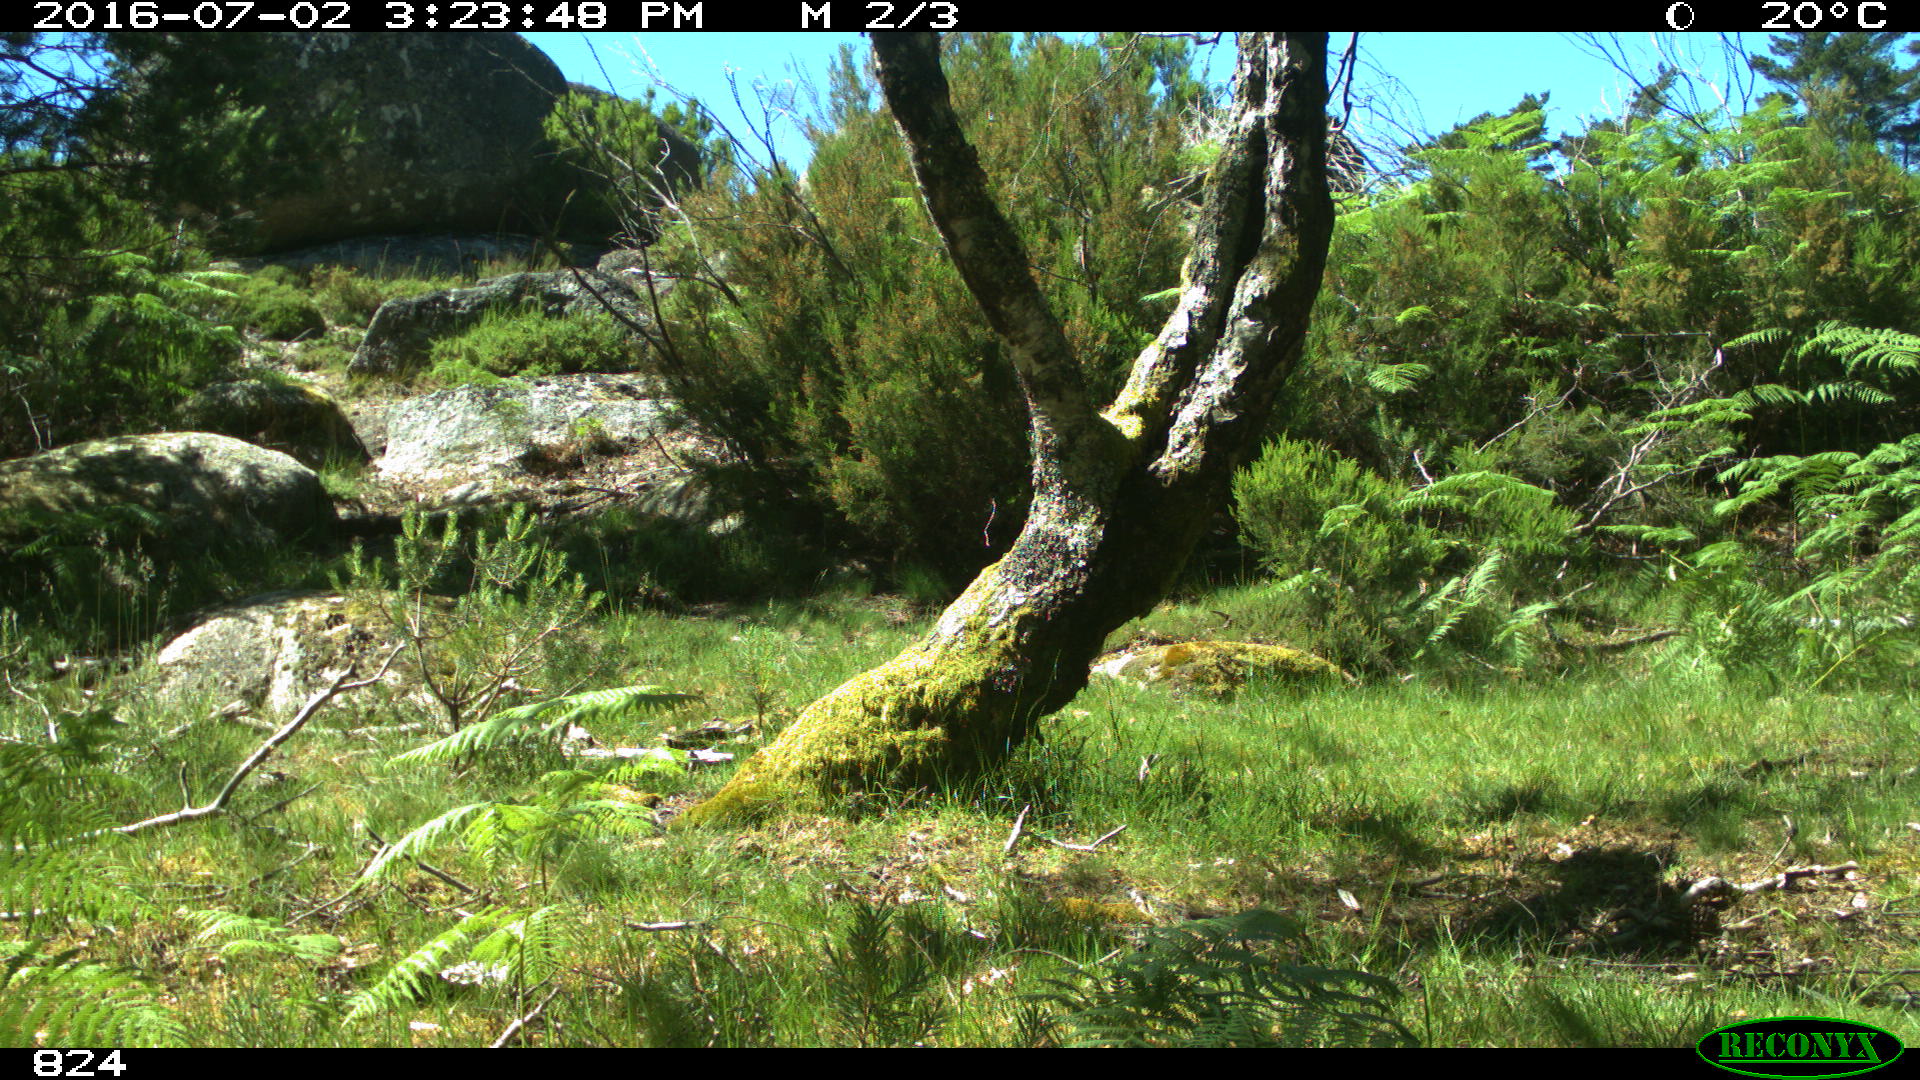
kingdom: Animalia
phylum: Chordata
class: Mammalia
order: Perissodactyla
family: Equidae
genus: Equus
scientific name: Equus caballus
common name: Horse
